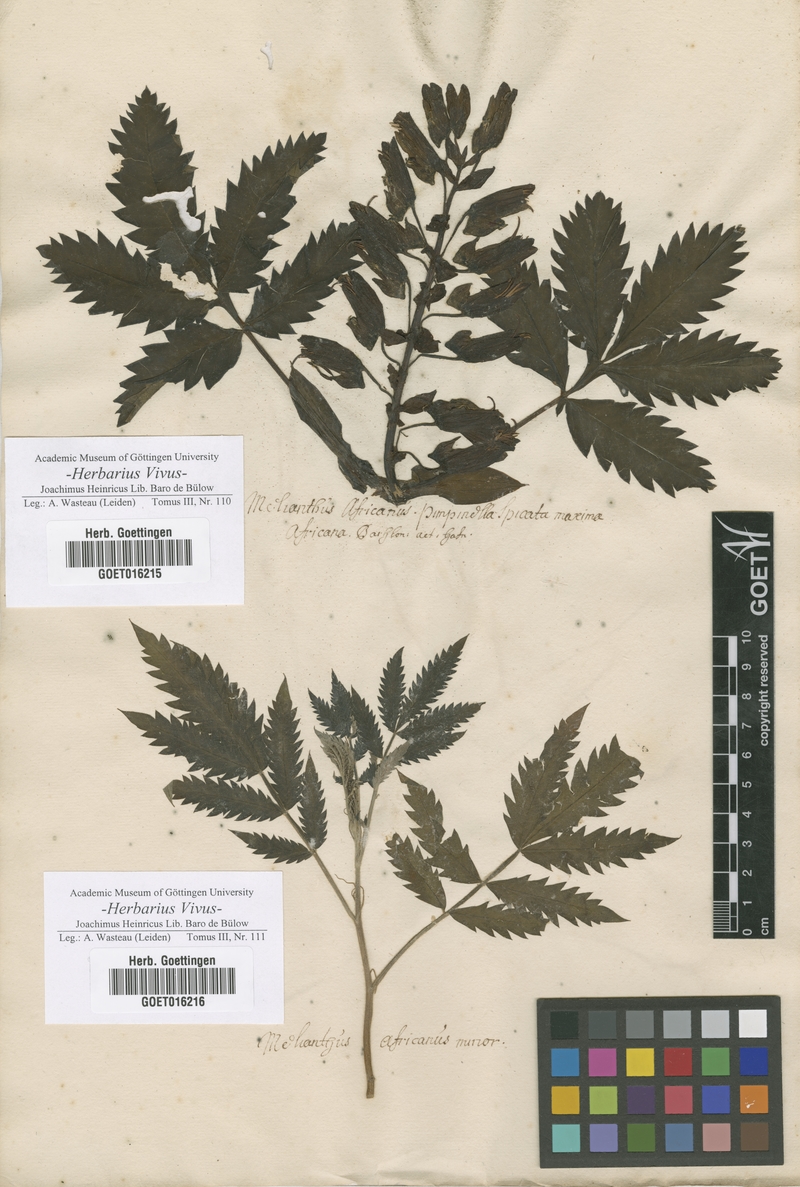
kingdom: Plantae
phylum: Tracheophyta
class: Magnoliopsida
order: Geraniales
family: Melianthaceae
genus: Melianthus
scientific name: Melianthus major
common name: Honey-flower
